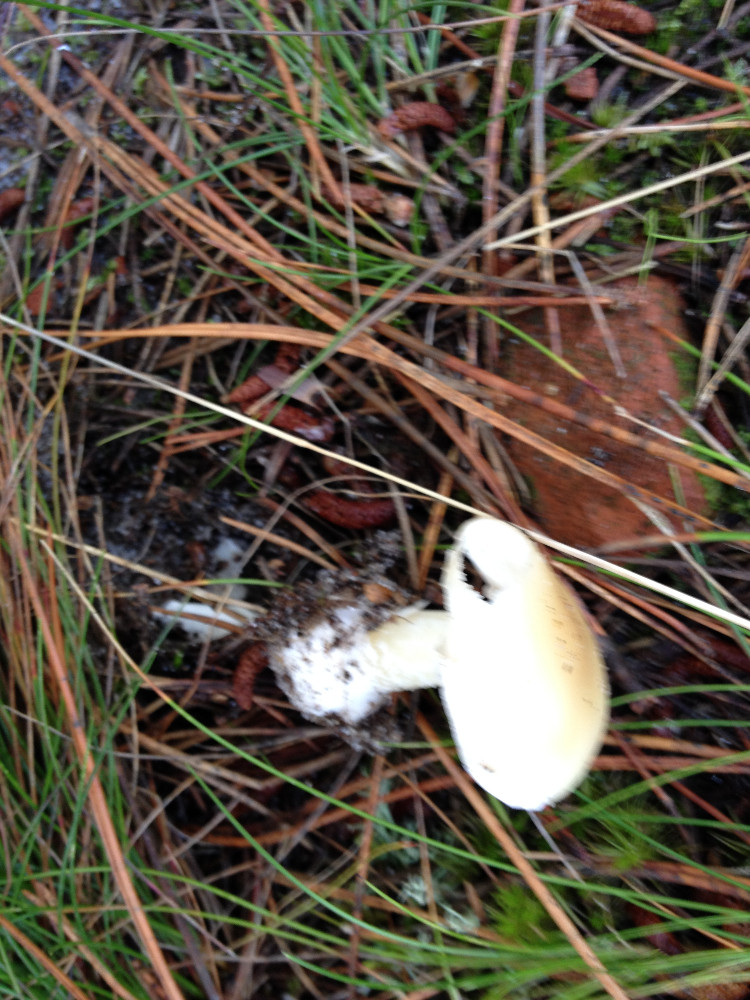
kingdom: Fungi
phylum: Basidiomycota
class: Agaricomycetes
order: Agaricales
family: Amanitaceae
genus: Amanita
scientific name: Amanita gemmata
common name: okkergul fluesvamp
